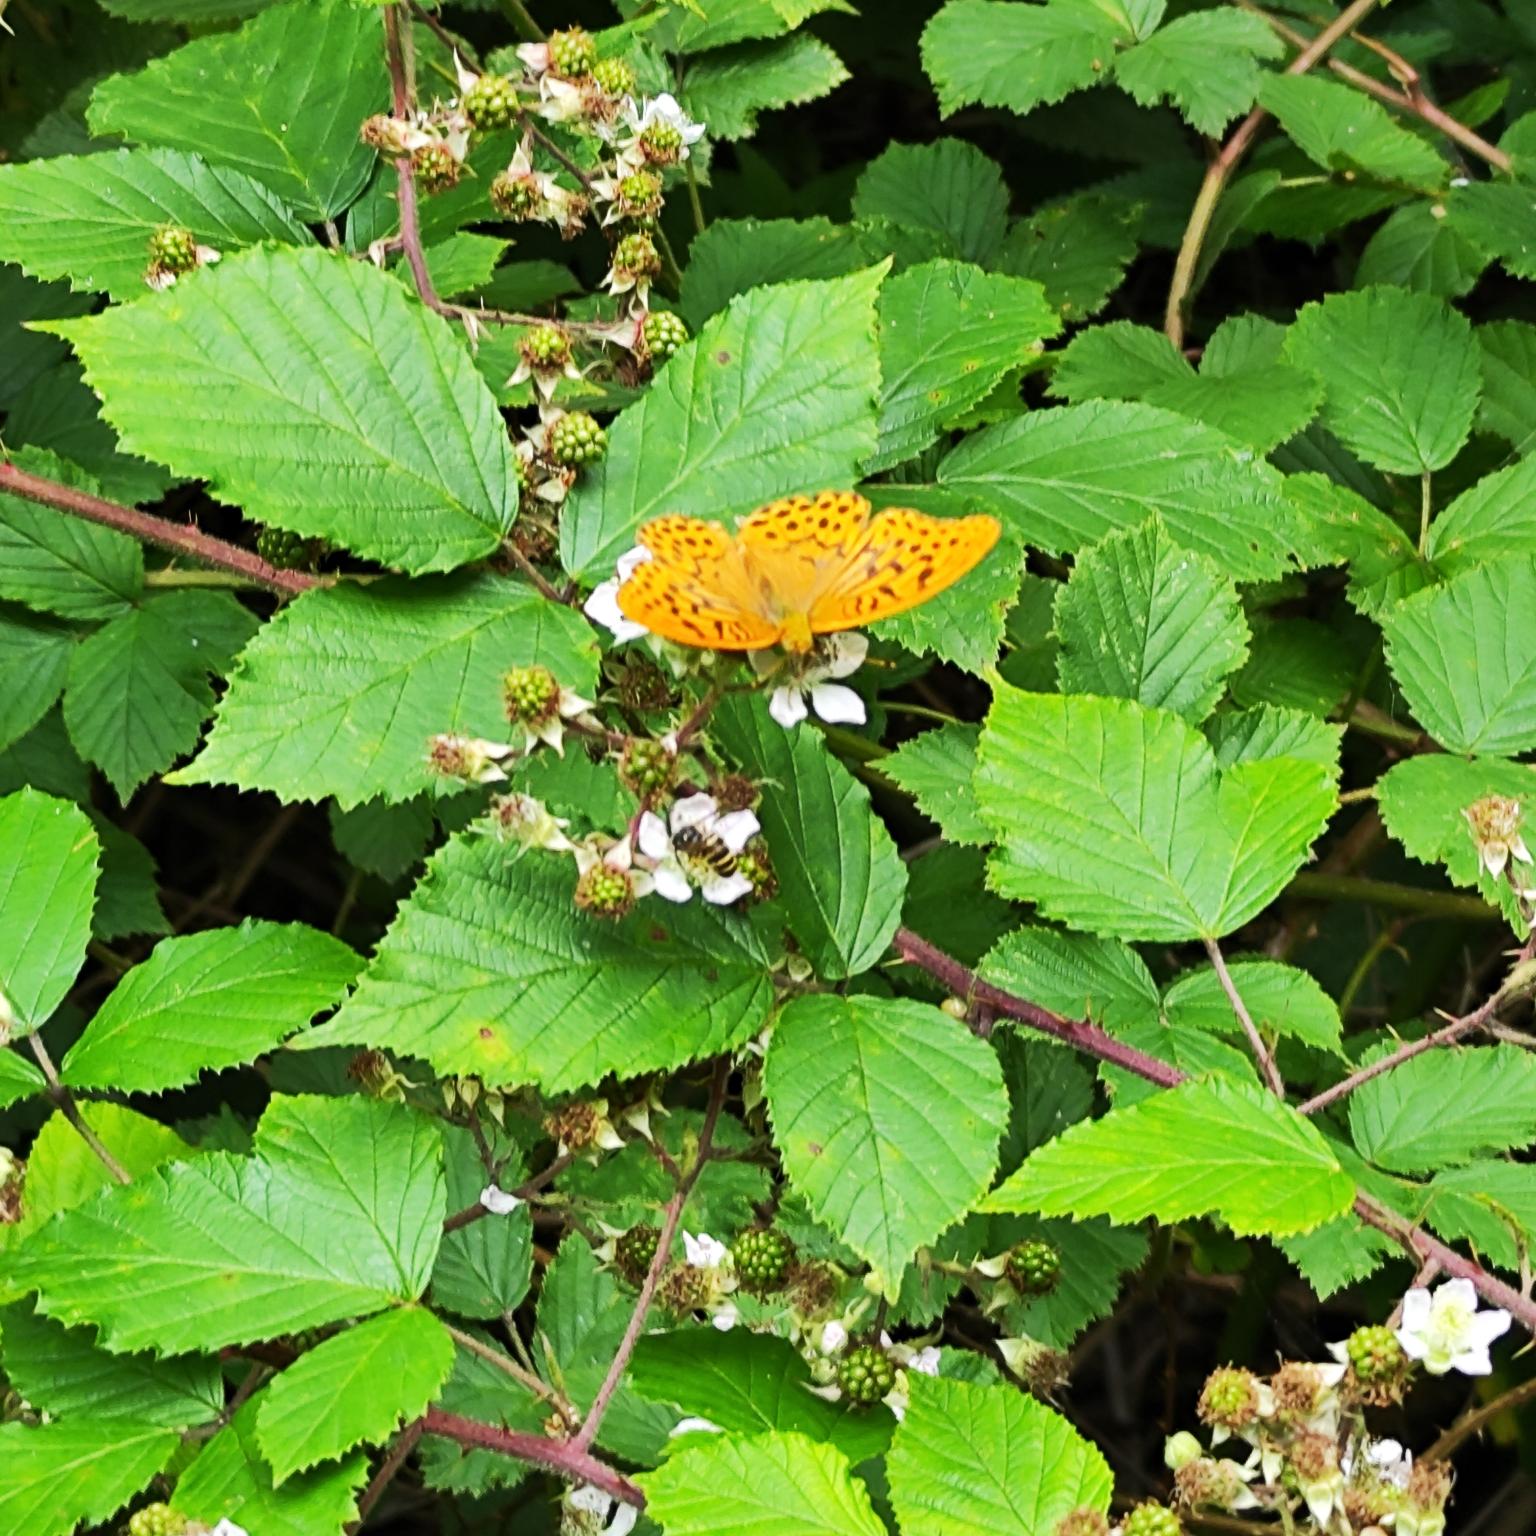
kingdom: Animalia
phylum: Arthropoda
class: Insecta
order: Lepidoptera
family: Nymphalidae
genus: Argynnis
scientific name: Argynnis paphia
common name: Kejserkåbe
